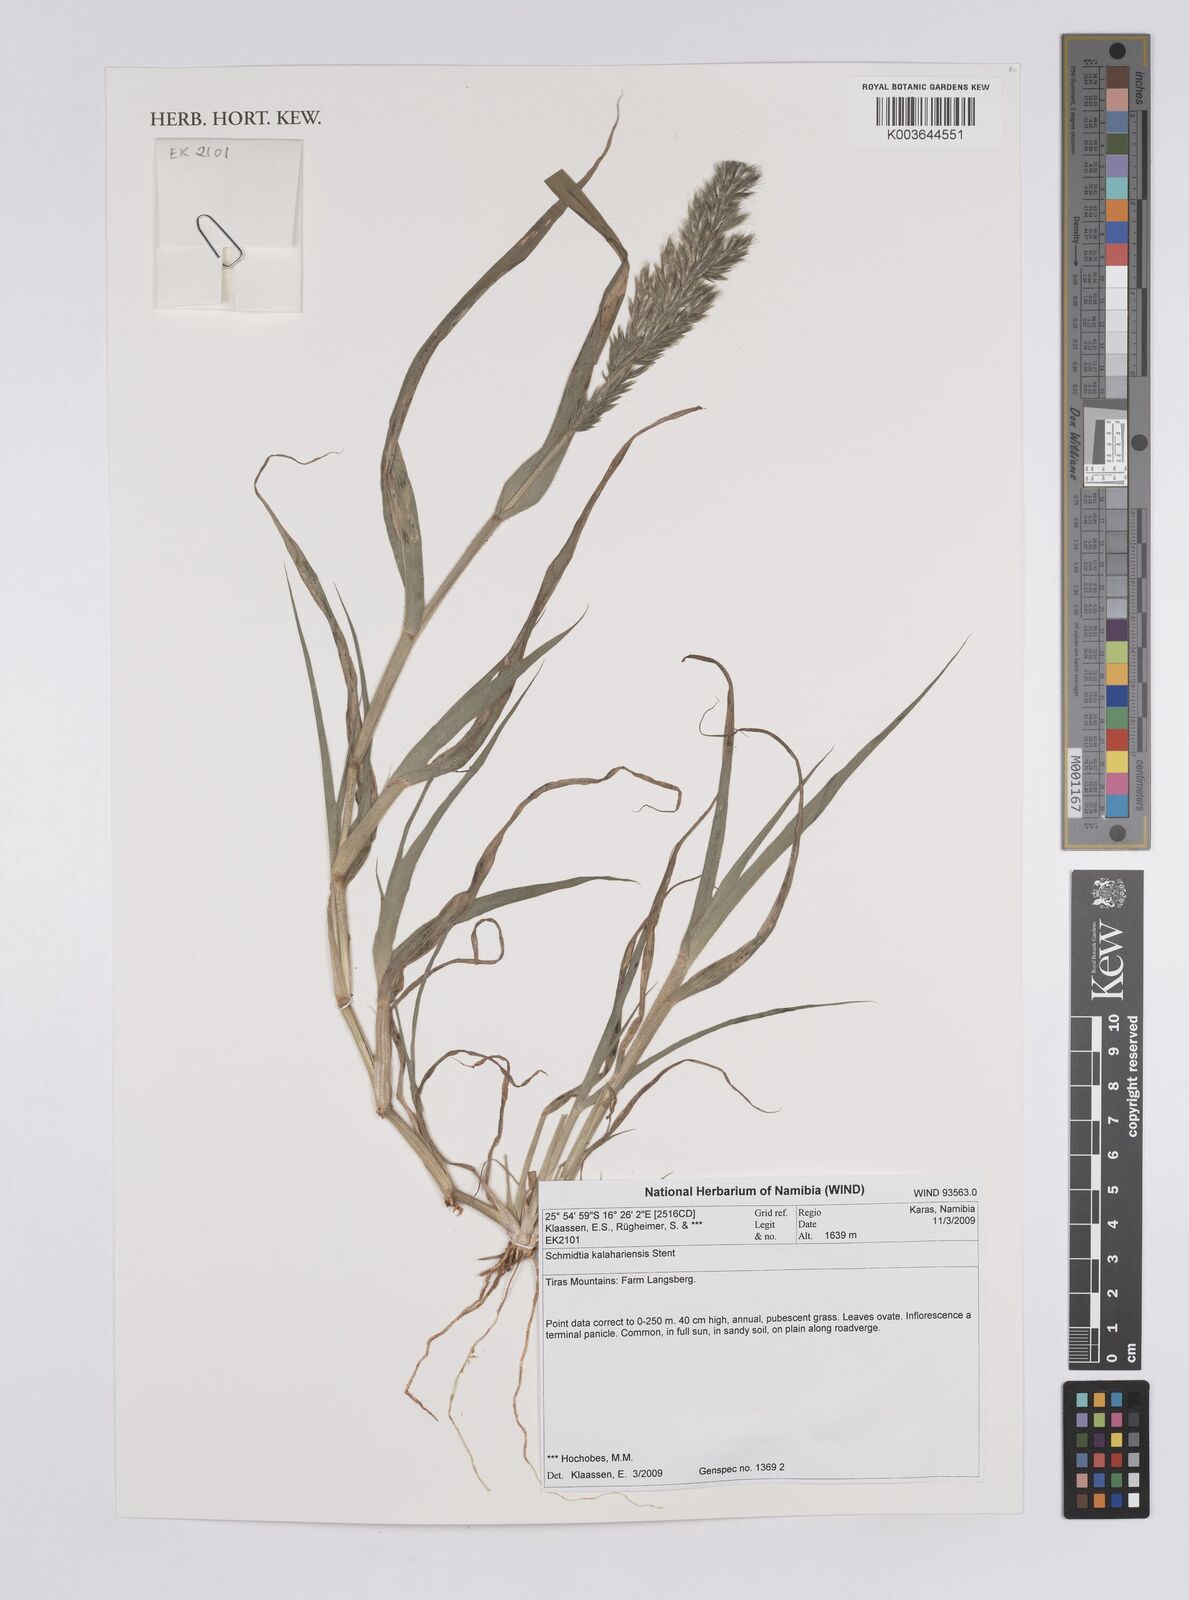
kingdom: Plantae
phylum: Tracheophyta
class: Liliopsida
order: Poales
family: Poaceae
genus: Schmidtia
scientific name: Schmidtia kalahariensis
